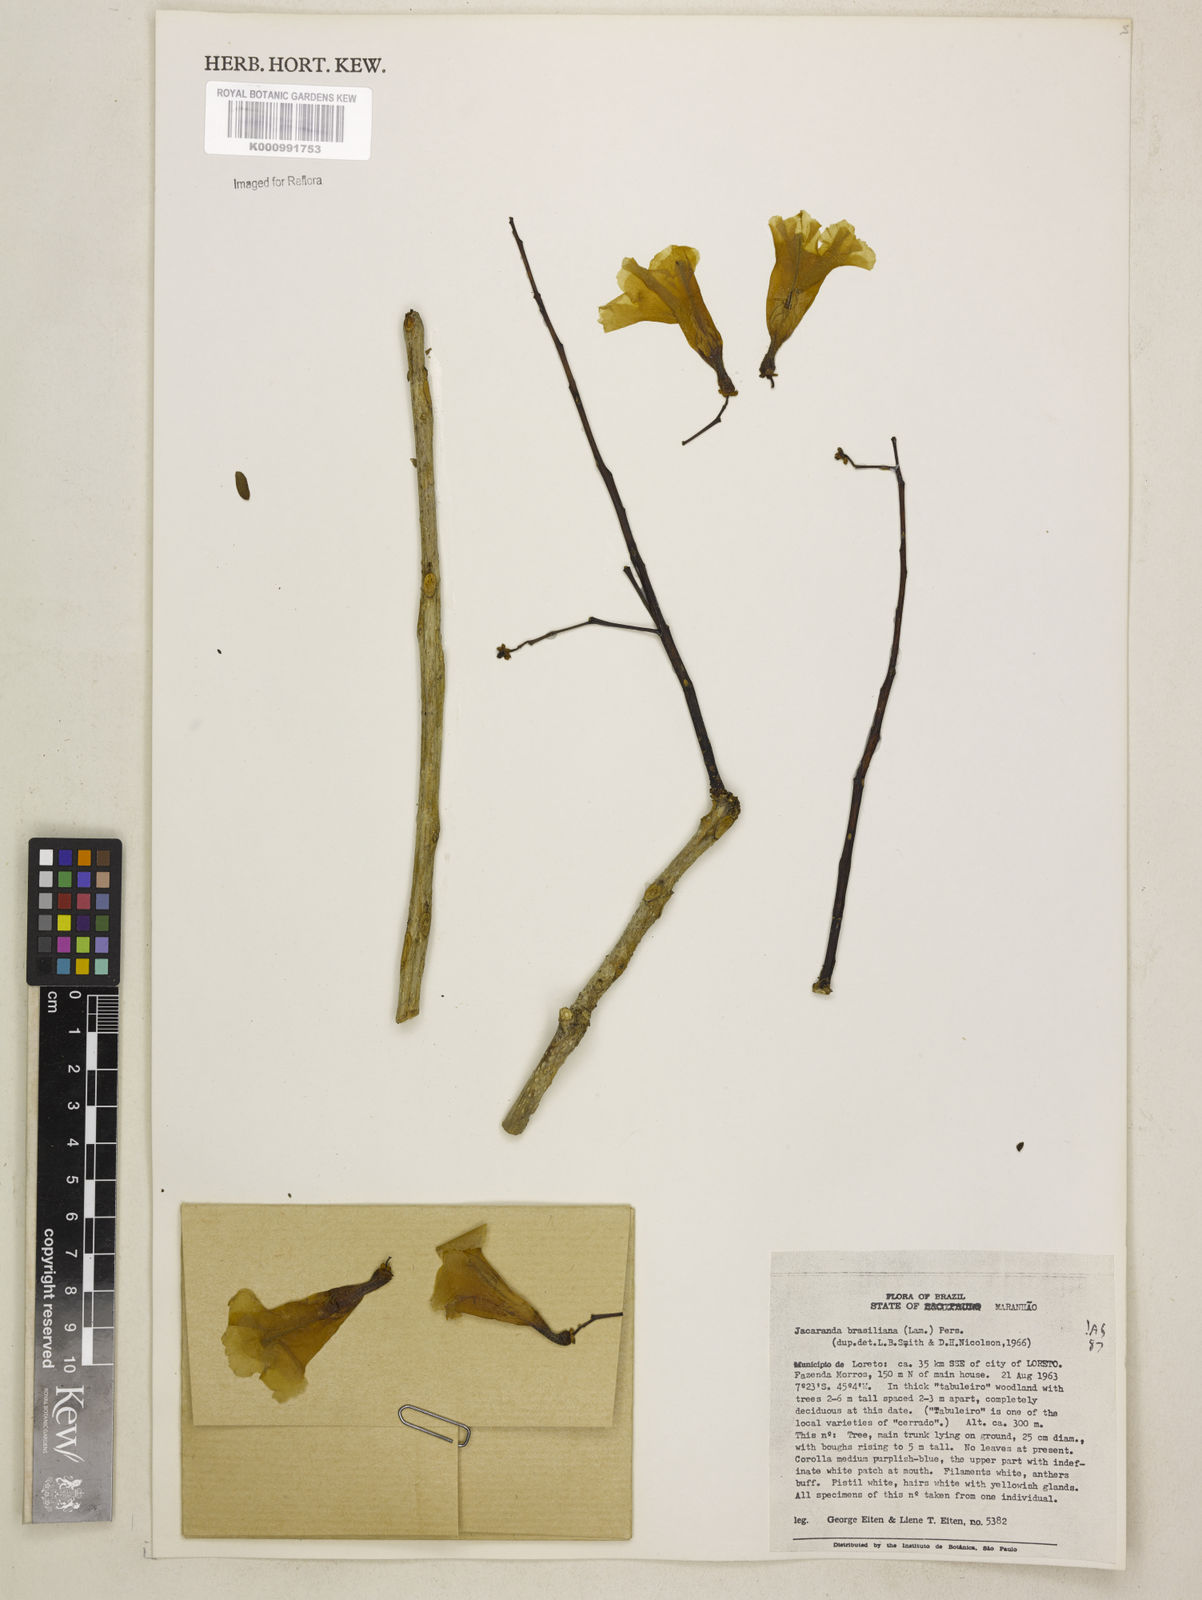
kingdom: Plantae
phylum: Tracheophyta
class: Magnoliopsida
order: Lamiales
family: Bignoniaceae
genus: Jacaranda
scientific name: Jacaranda brasiliana
